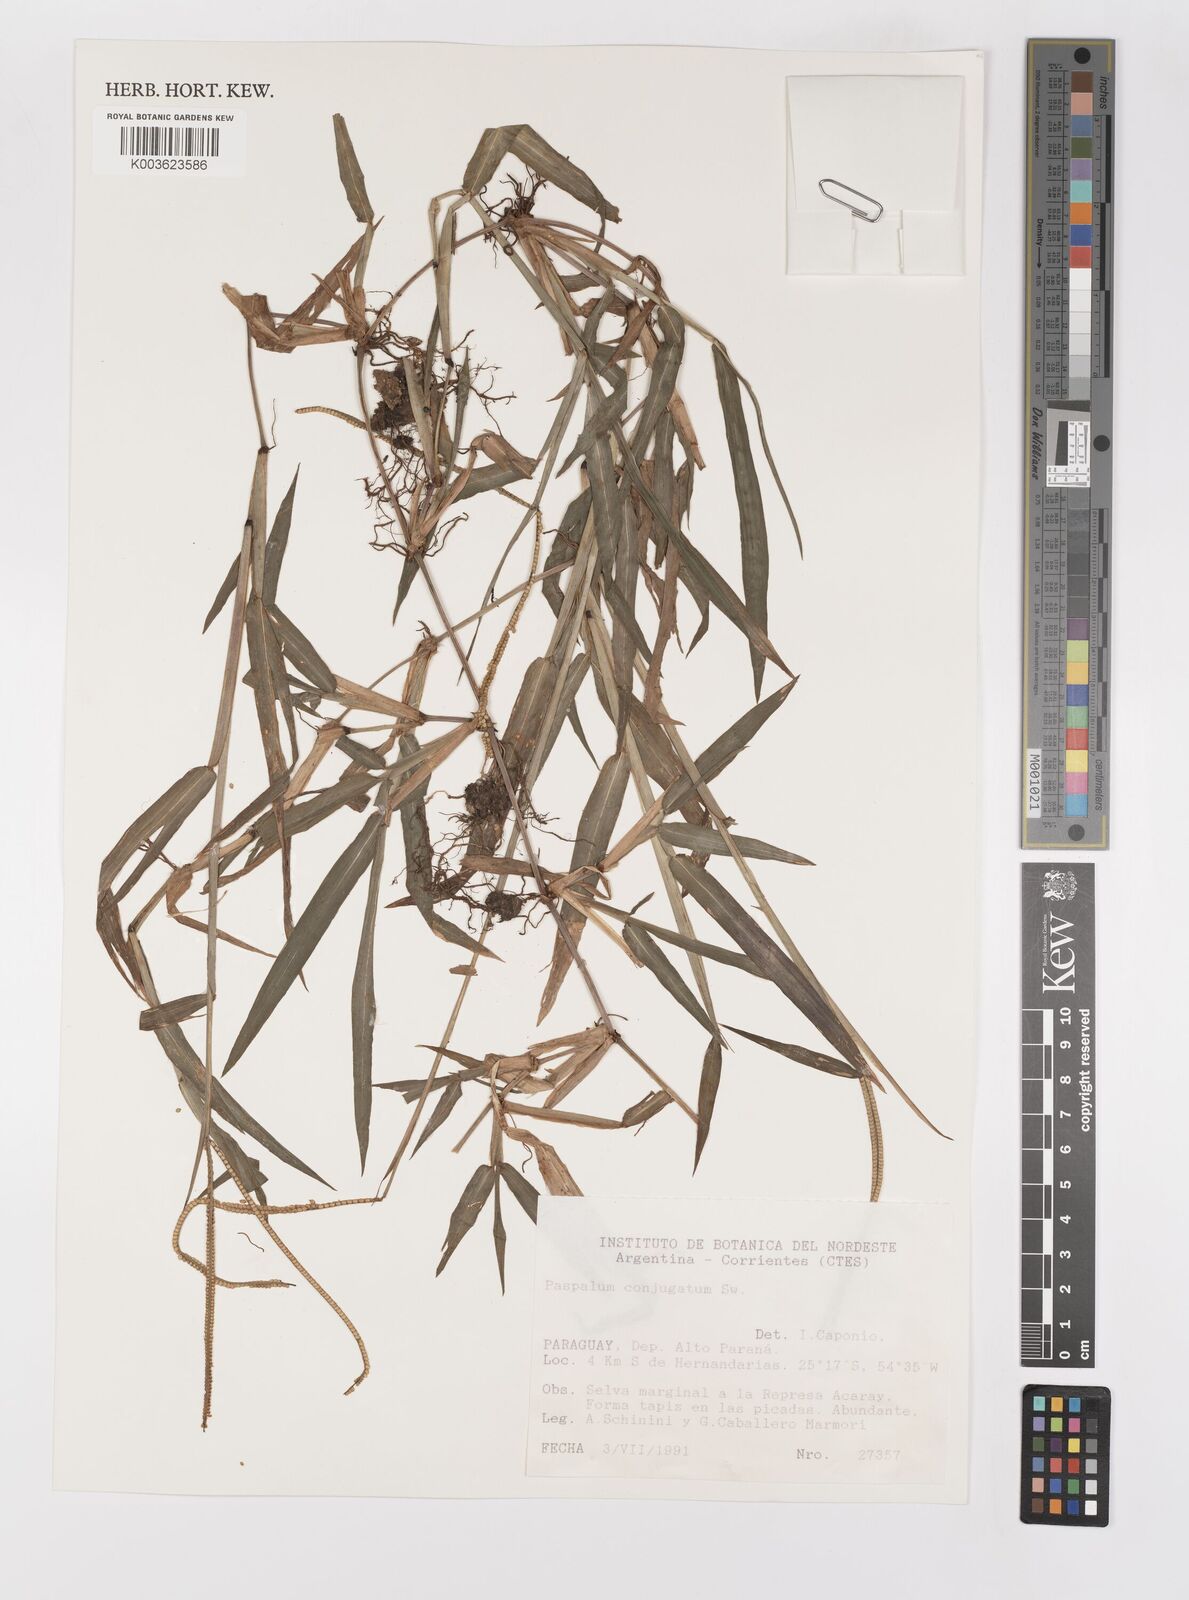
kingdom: Plantae
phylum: Tracheophyta
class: Liliopsida
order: Poales
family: Poaceae
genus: Paspalum
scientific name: Paspalum conjugatum
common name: Hilograss
